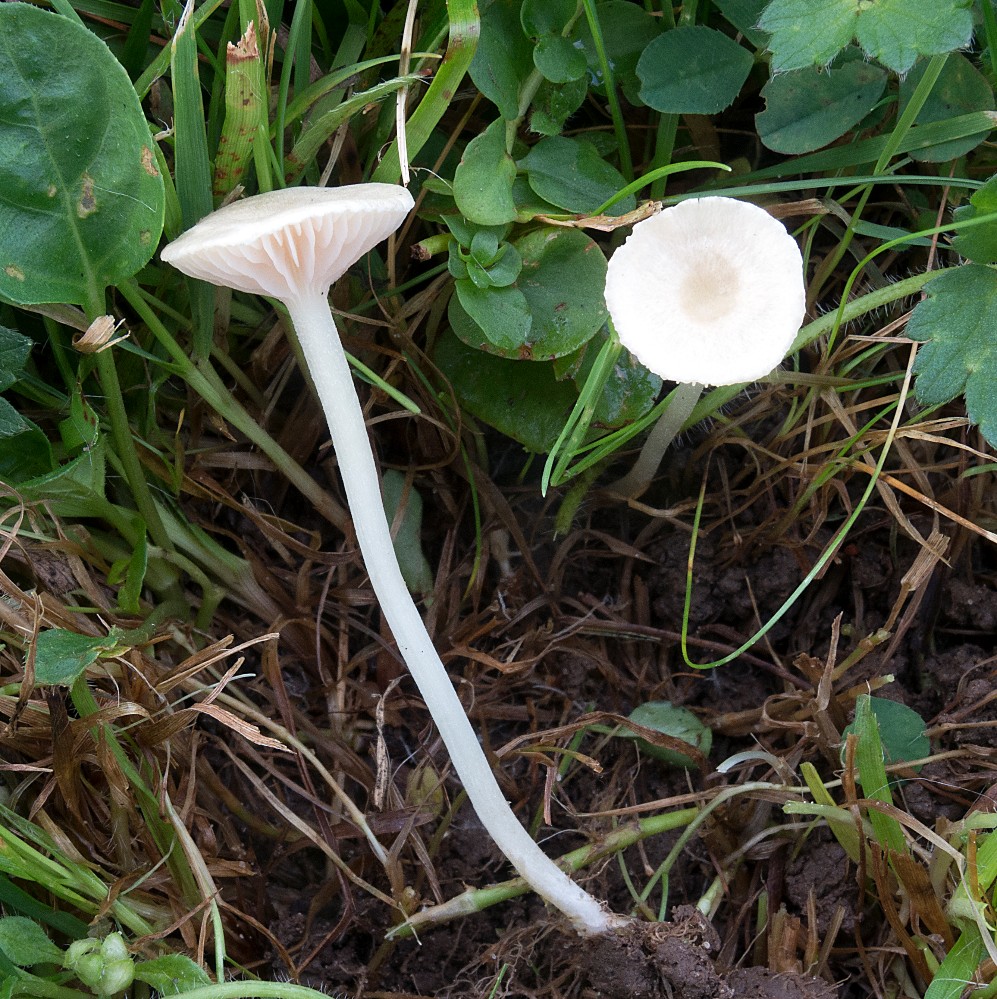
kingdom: Fungi
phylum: Basidiomycota
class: Agaricomycetes
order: Agaricales
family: Entolomataceae
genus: Entoloma
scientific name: Entoloma sericellum
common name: silkehvid rødblad
